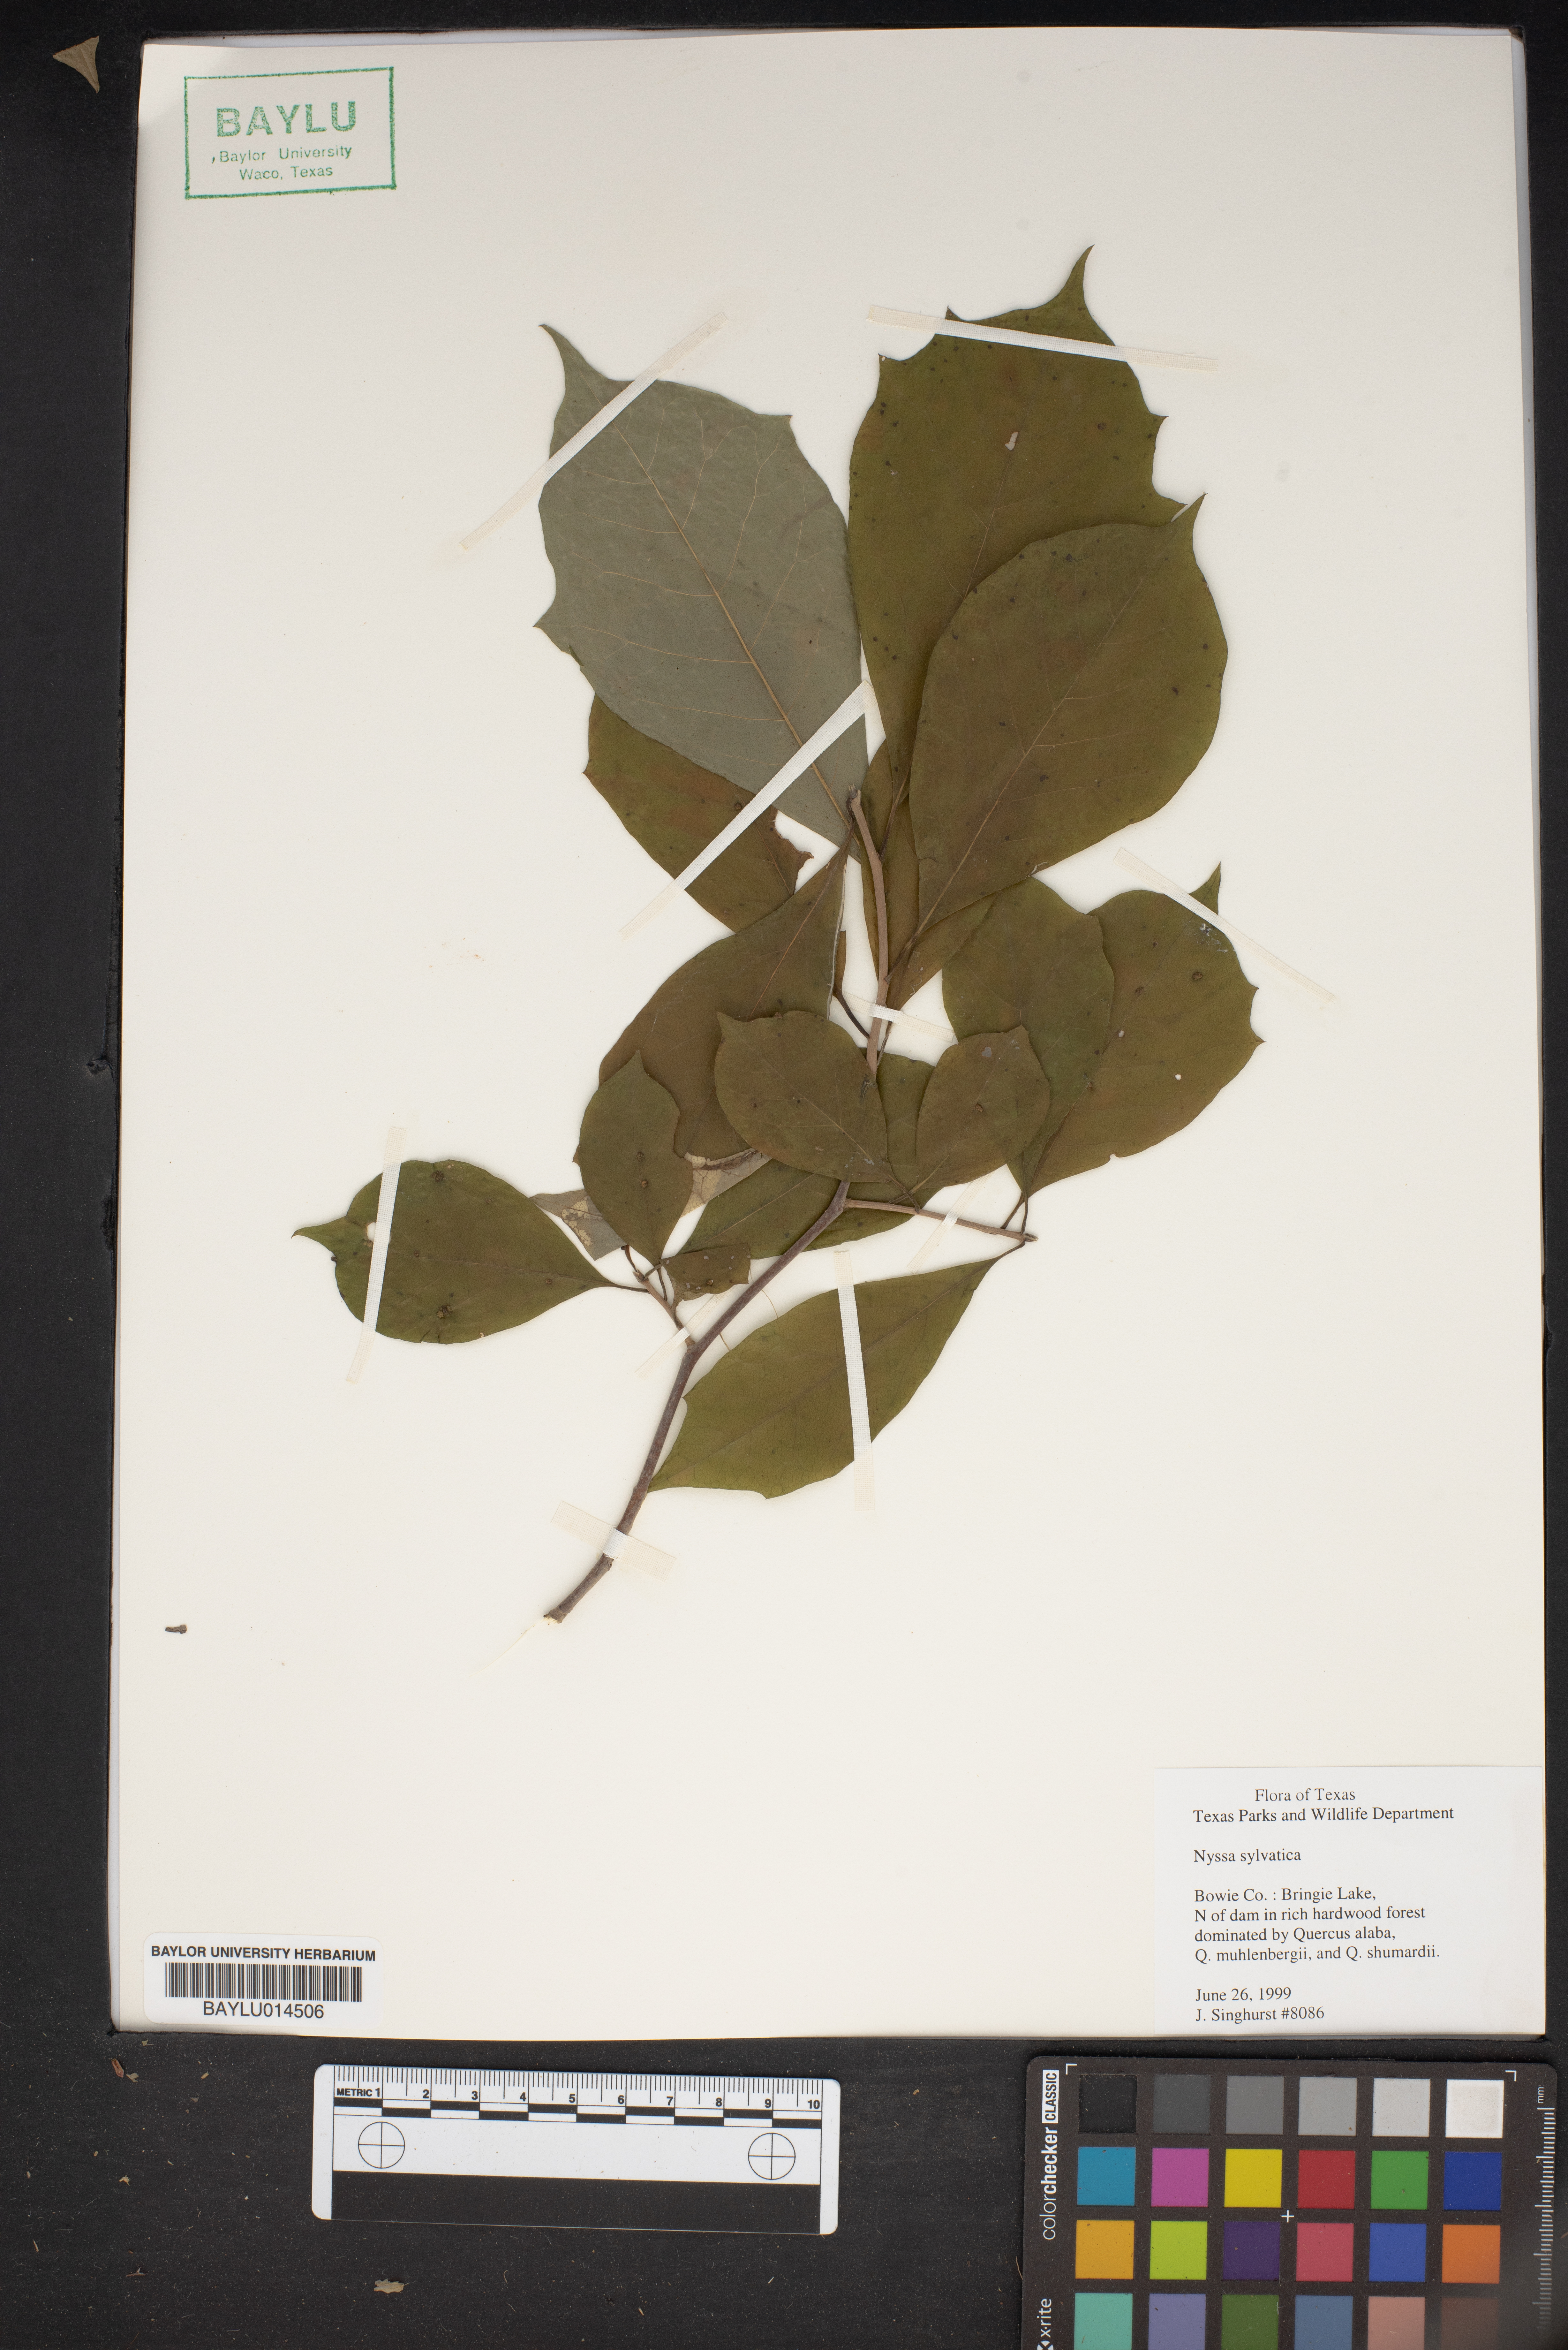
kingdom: Plantae
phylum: Tracheophyta
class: Magnoliopsida
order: Cornales
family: Nyssaceae
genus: Nyssa
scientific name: Nyssa sylvatica
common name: Black tupelo
